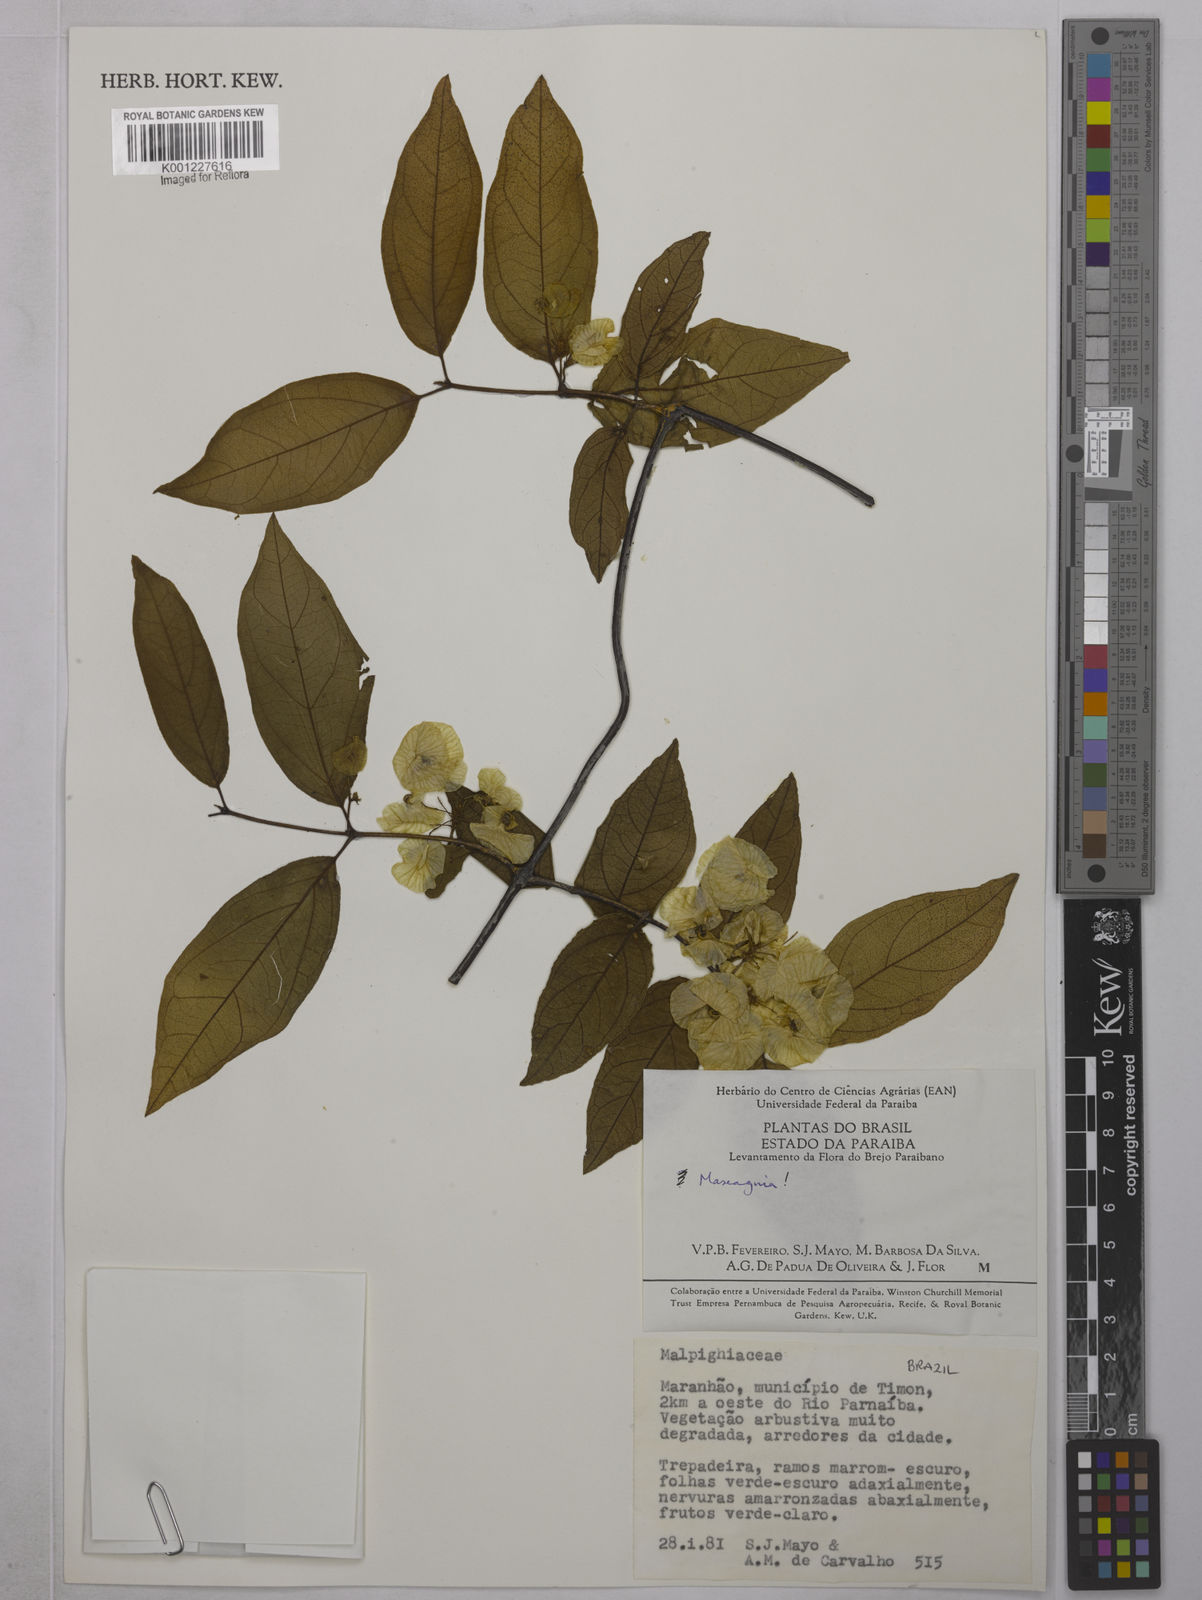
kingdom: Plantae
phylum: Tracheophyta
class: Magnoliopsida
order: Malpighiales
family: Malpighiaceae
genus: Mascagnia
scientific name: Mascagnia
